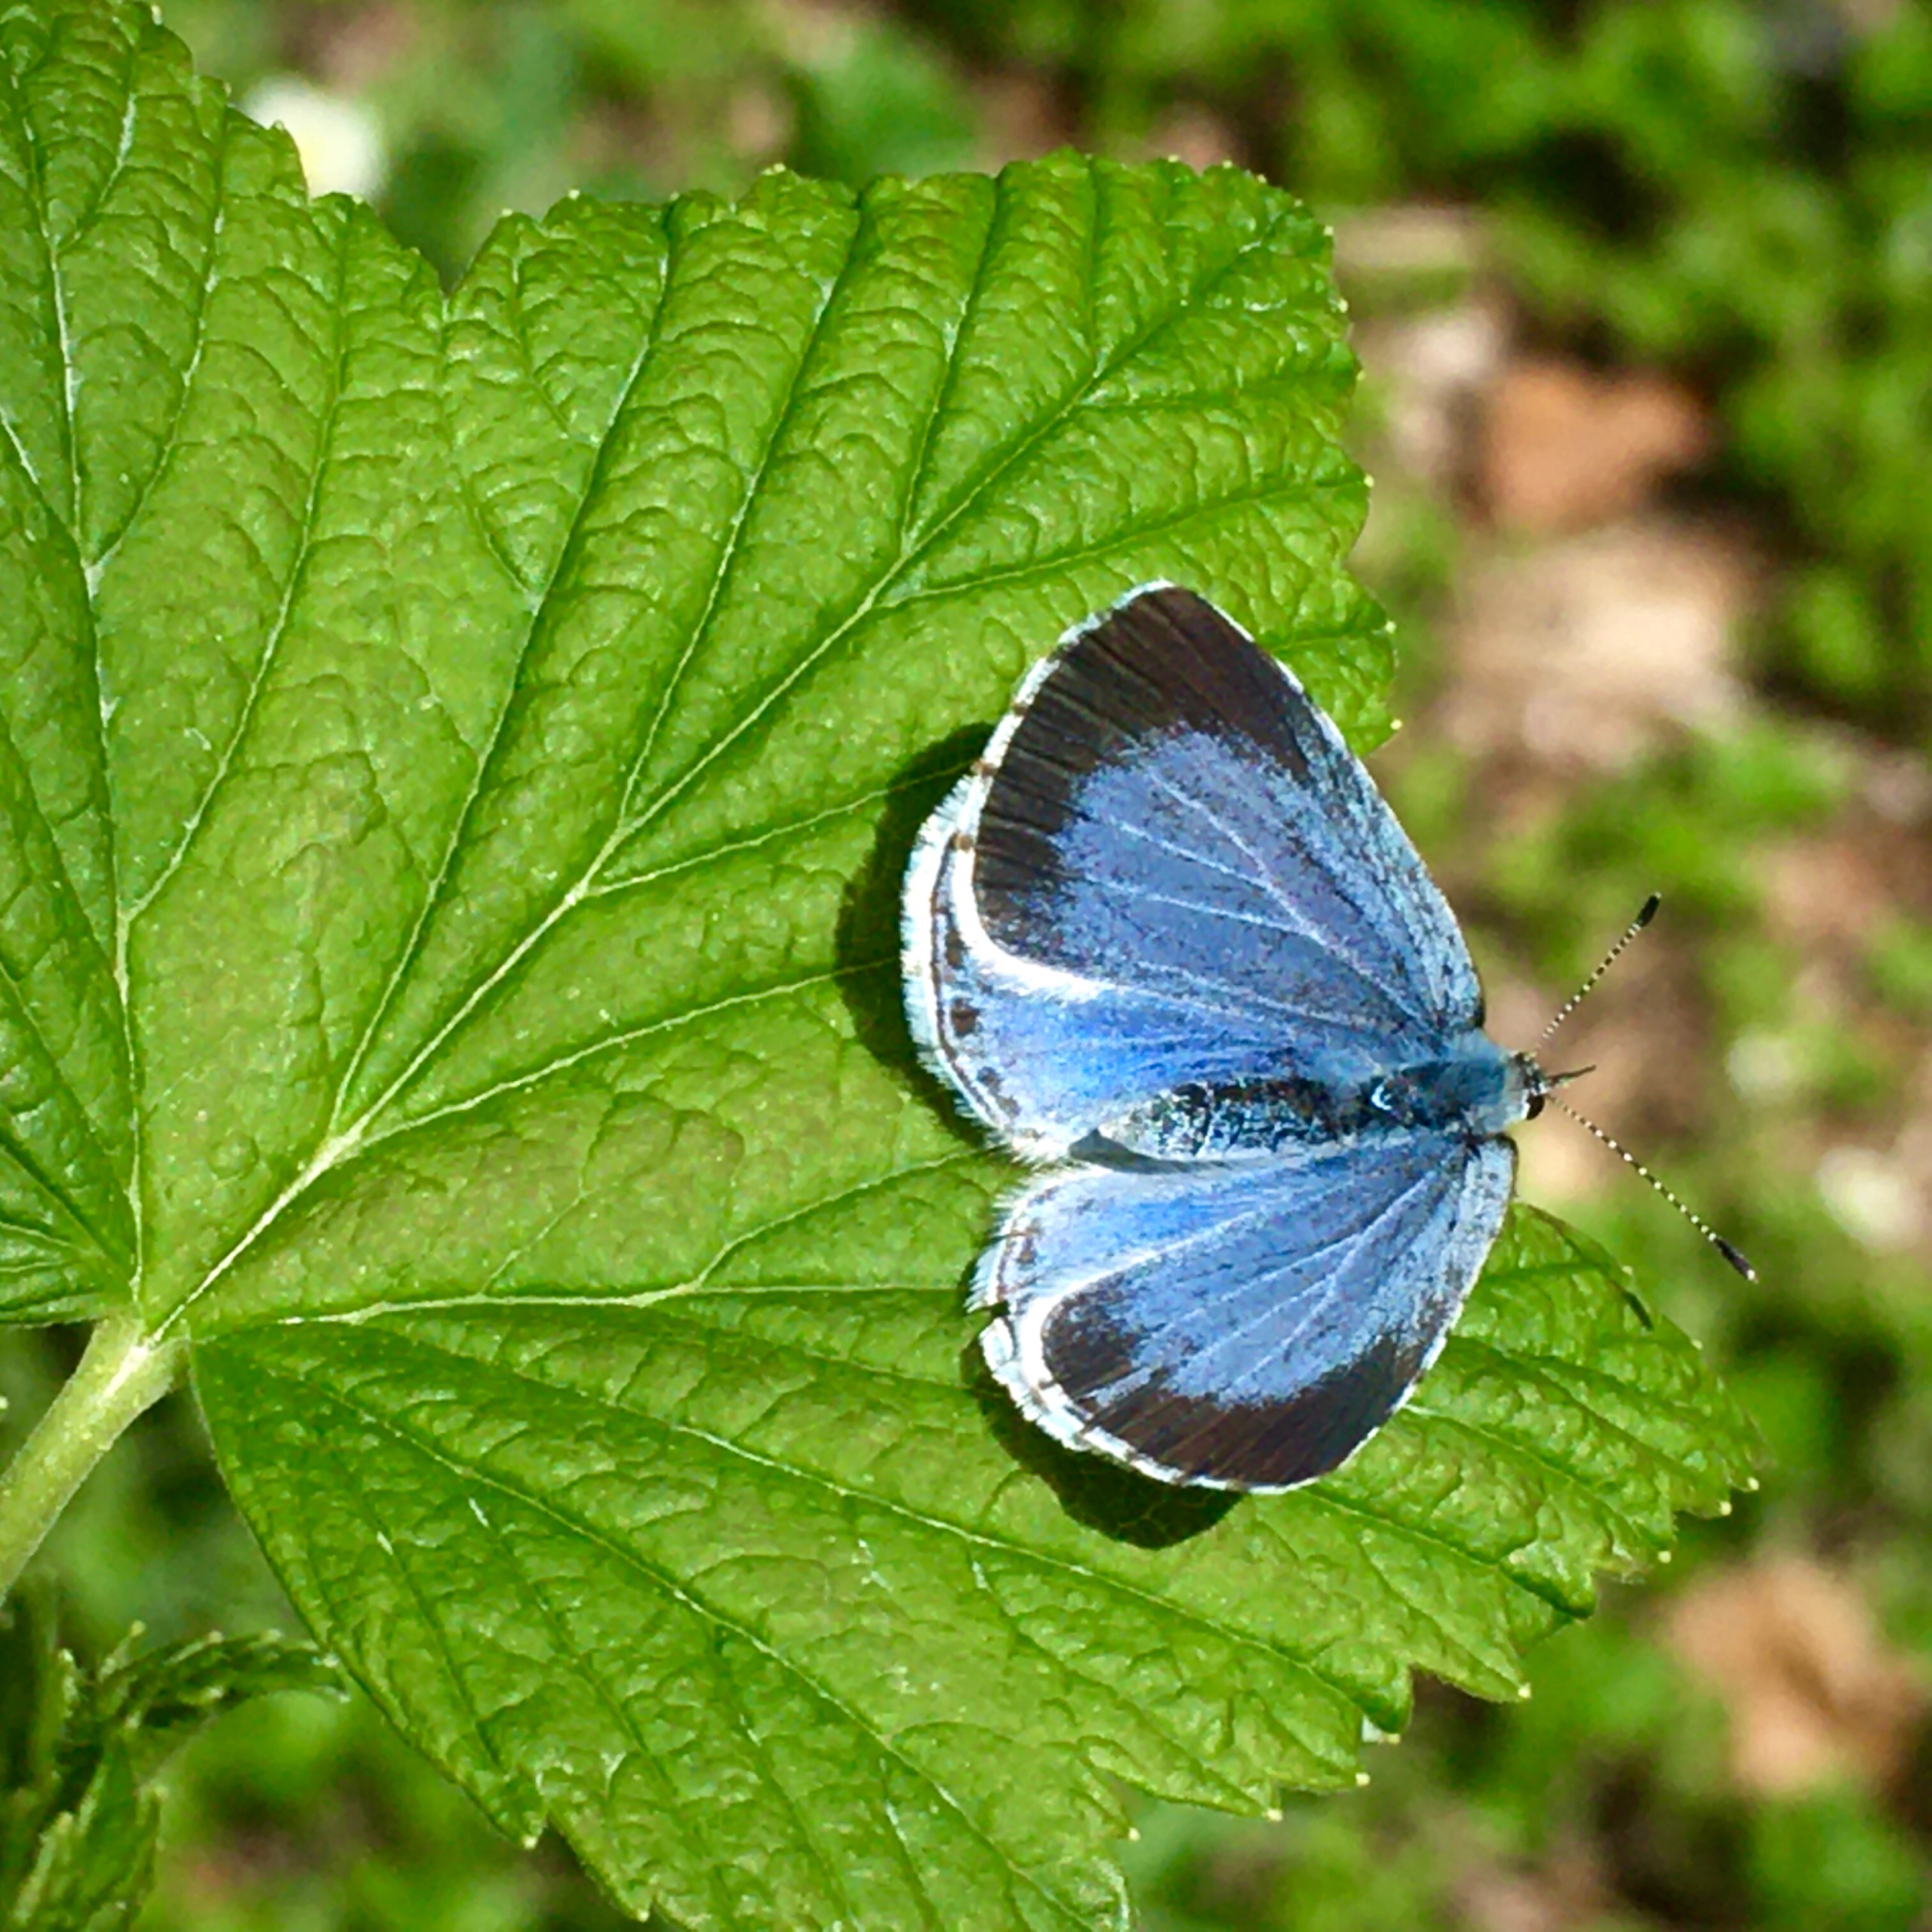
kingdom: Animalia
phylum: Arthropoda
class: Insecta
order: Lepidoptera
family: Lycaenidae
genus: Celastrina
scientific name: Celastrina argiolus
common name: Skovblåfugl
